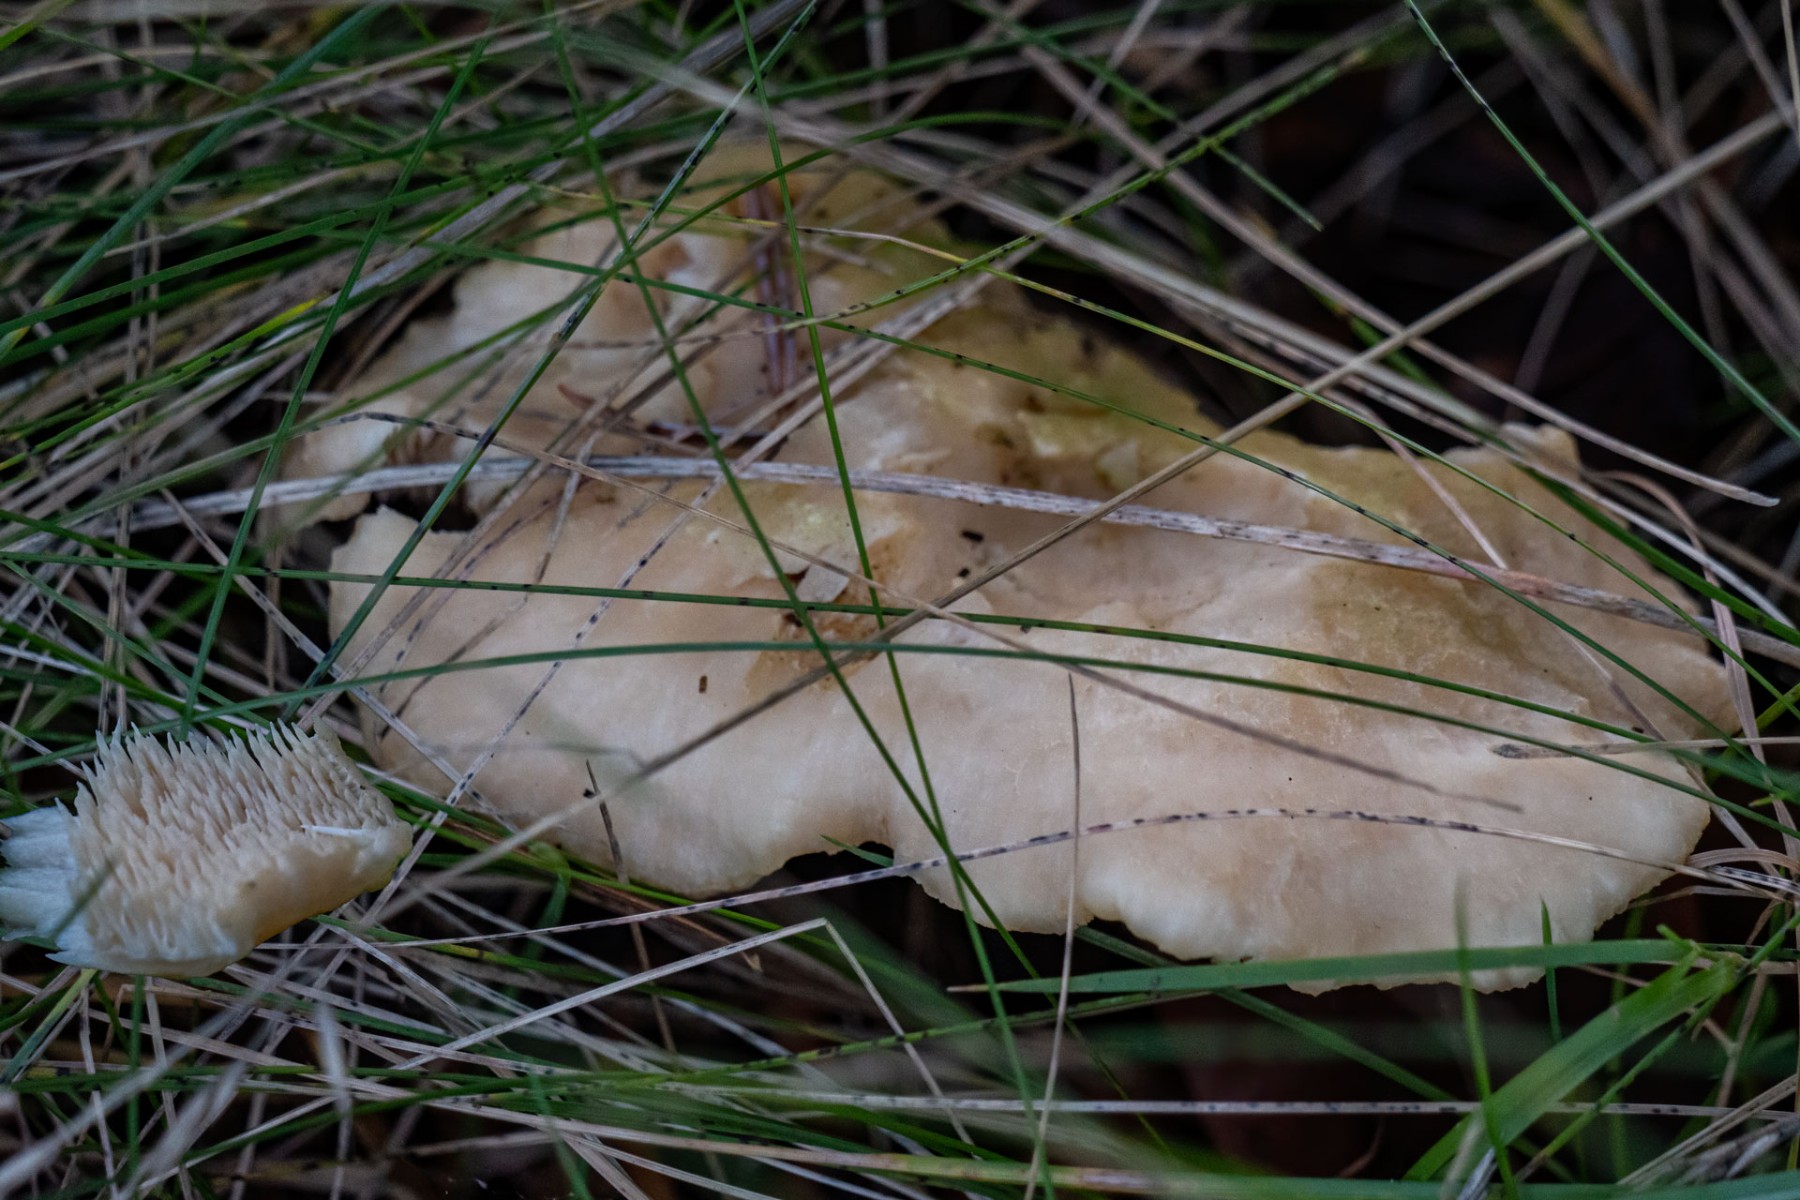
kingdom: Fungi
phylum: Basidiomycota
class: Agaricomycetes
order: Cantharellales
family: Hydnaceae
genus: Hydnum
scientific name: Hydnum vesterholtii
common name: Vesterholts pigsvamp
